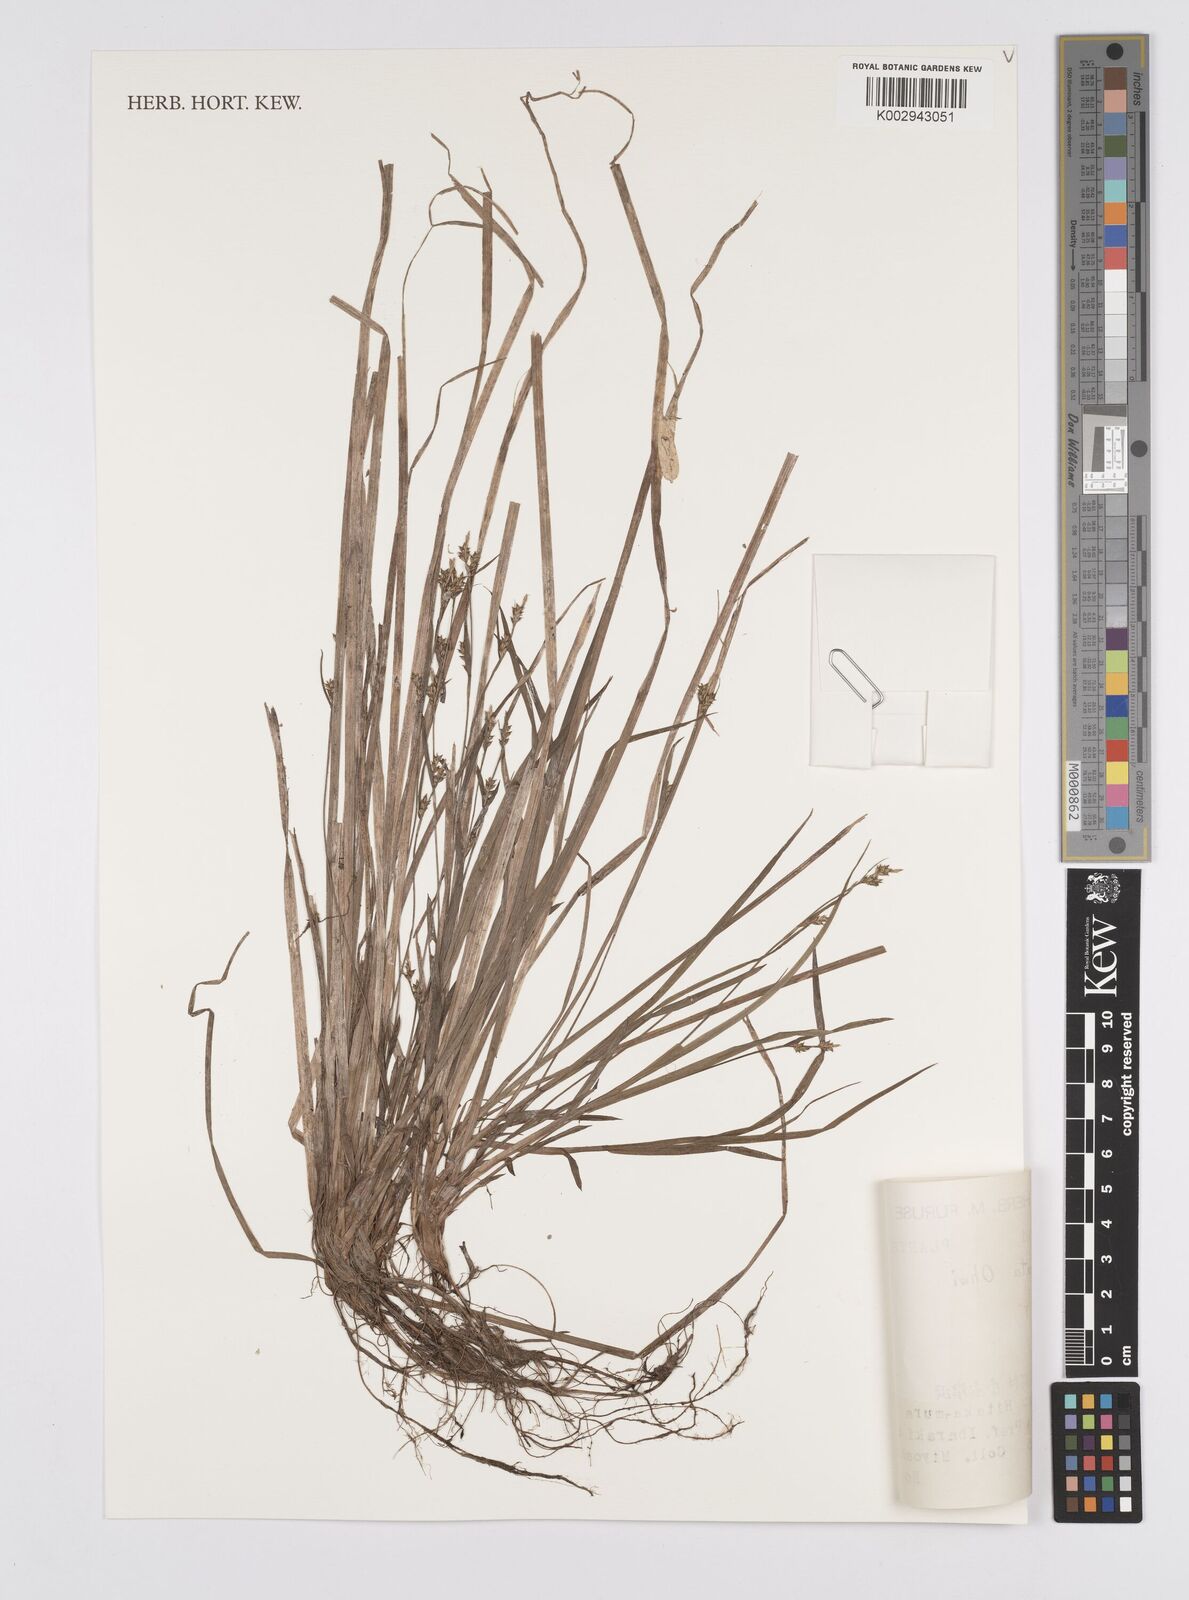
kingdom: Plantae
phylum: Tracheophyta
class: Liliopsida
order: Poales
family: Cyperaceae
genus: Carex
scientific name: Carex rugata
